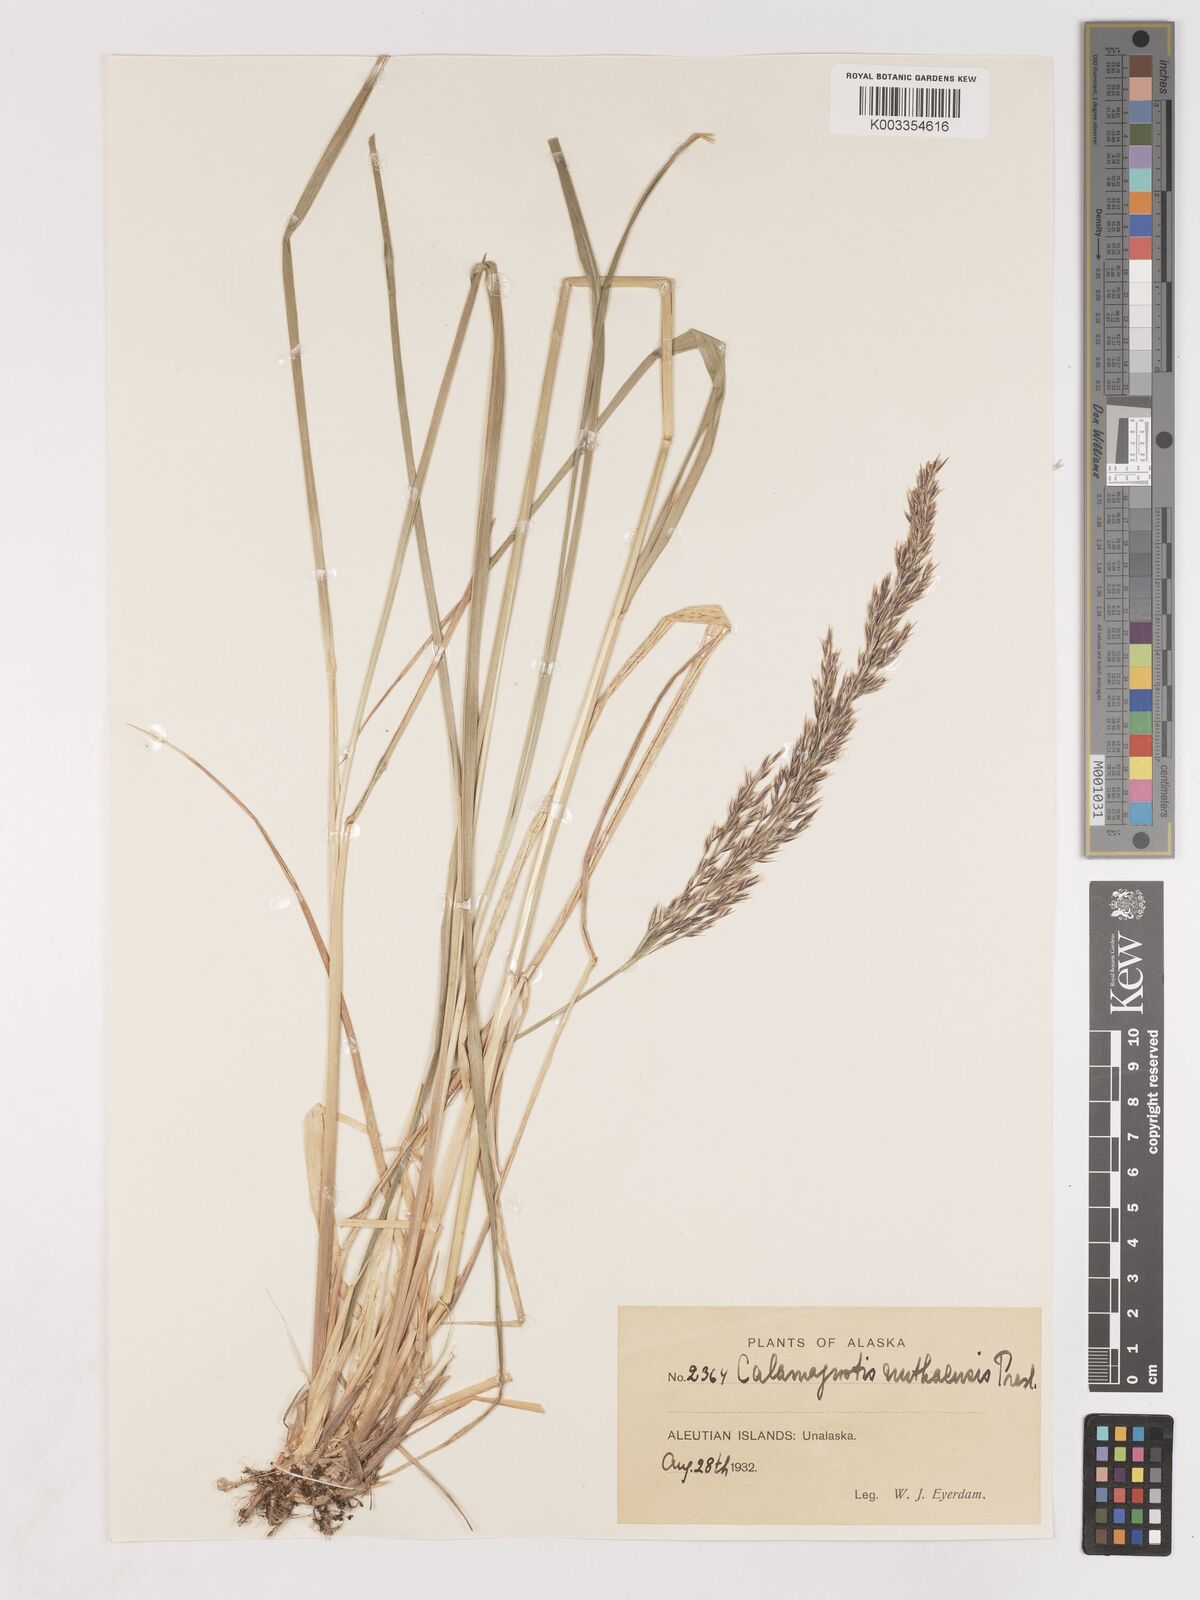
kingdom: Plantae
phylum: Tracheophyta
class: Liliopsida
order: Poales
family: Poaceae
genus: Calamagrostis
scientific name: Calamagrostis nutkaensis
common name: Pacific reed grass
